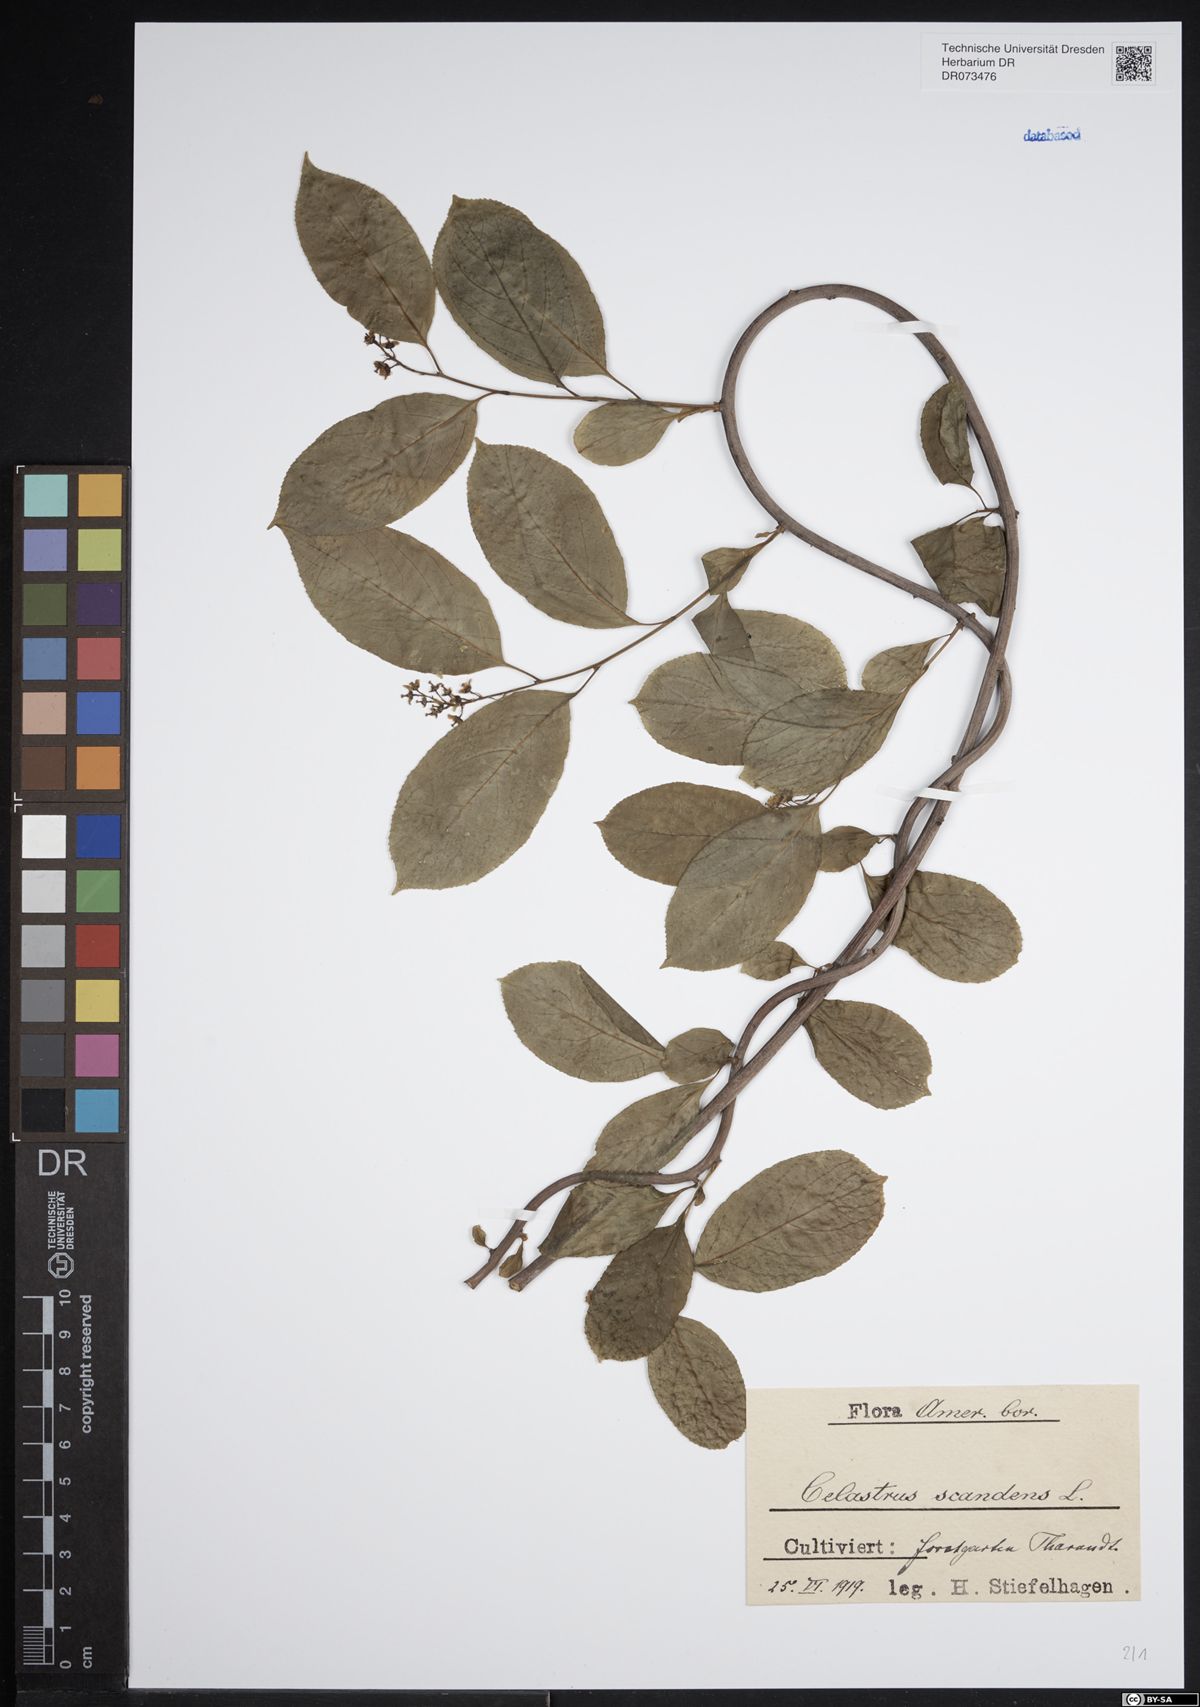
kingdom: Plantae
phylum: Tracheophyta
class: Magnoliopsida
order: Celastrales
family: Celastraceae
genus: Celastrus
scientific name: Celastrus scandens
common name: American bittersweet
